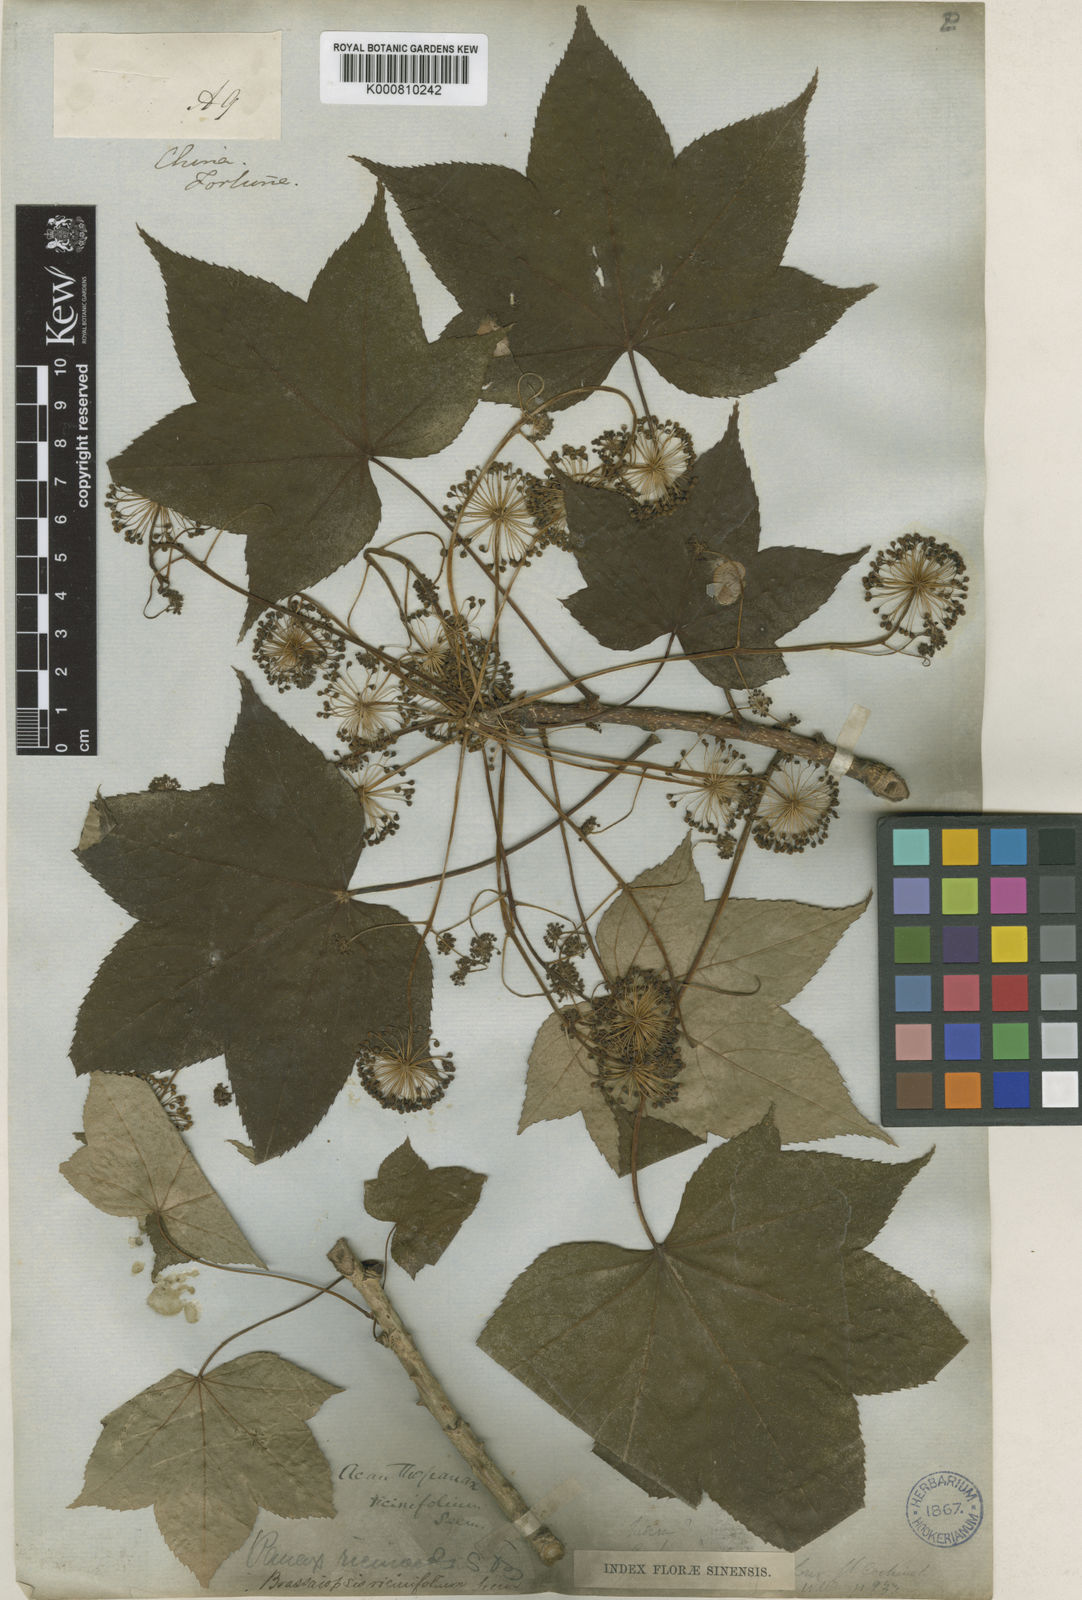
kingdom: Plantae
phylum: Tracheophyta
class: Magnoliopsida
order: Apiales
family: Araliaceae
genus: Kalopanax
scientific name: Kalopanax septemlobus
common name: Castor aralia
